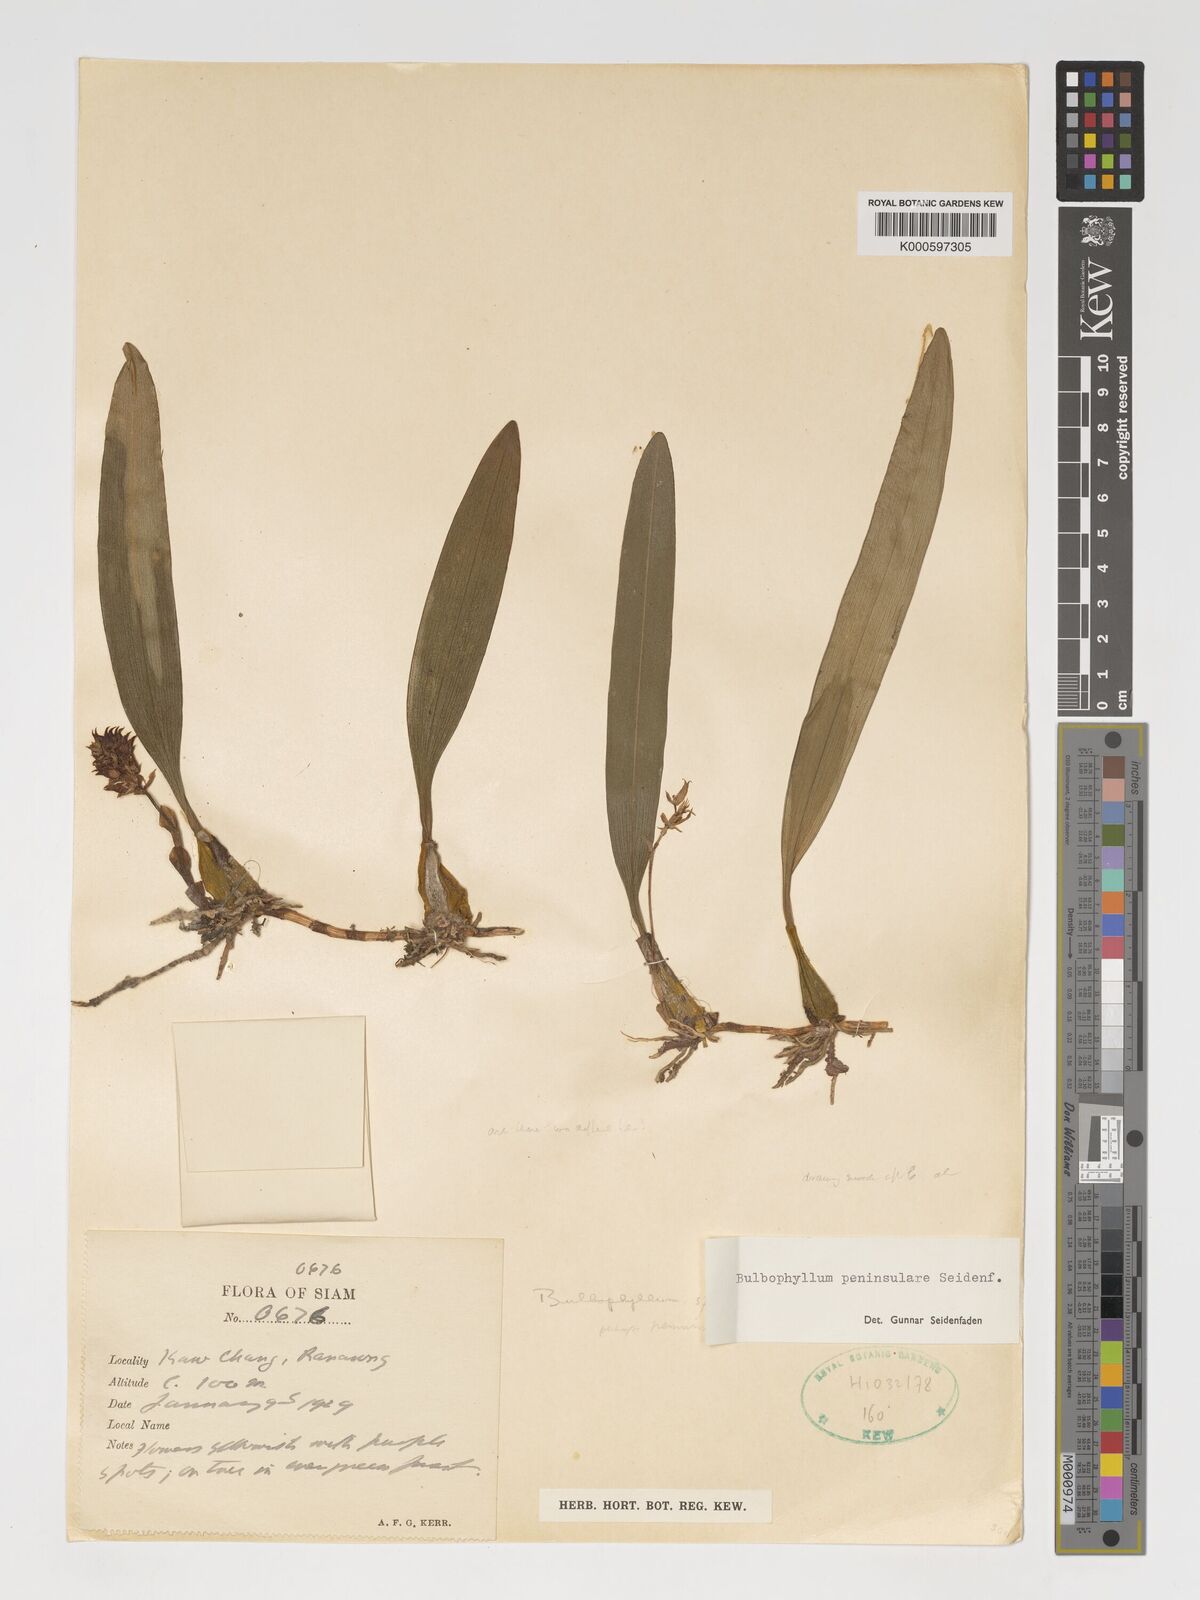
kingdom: Plantae
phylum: Tracheophyta
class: Liliopsida
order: Asparagales
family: Orchidaceae
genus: Bulbophyllum
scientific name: Bulbophyllum peninsulare
